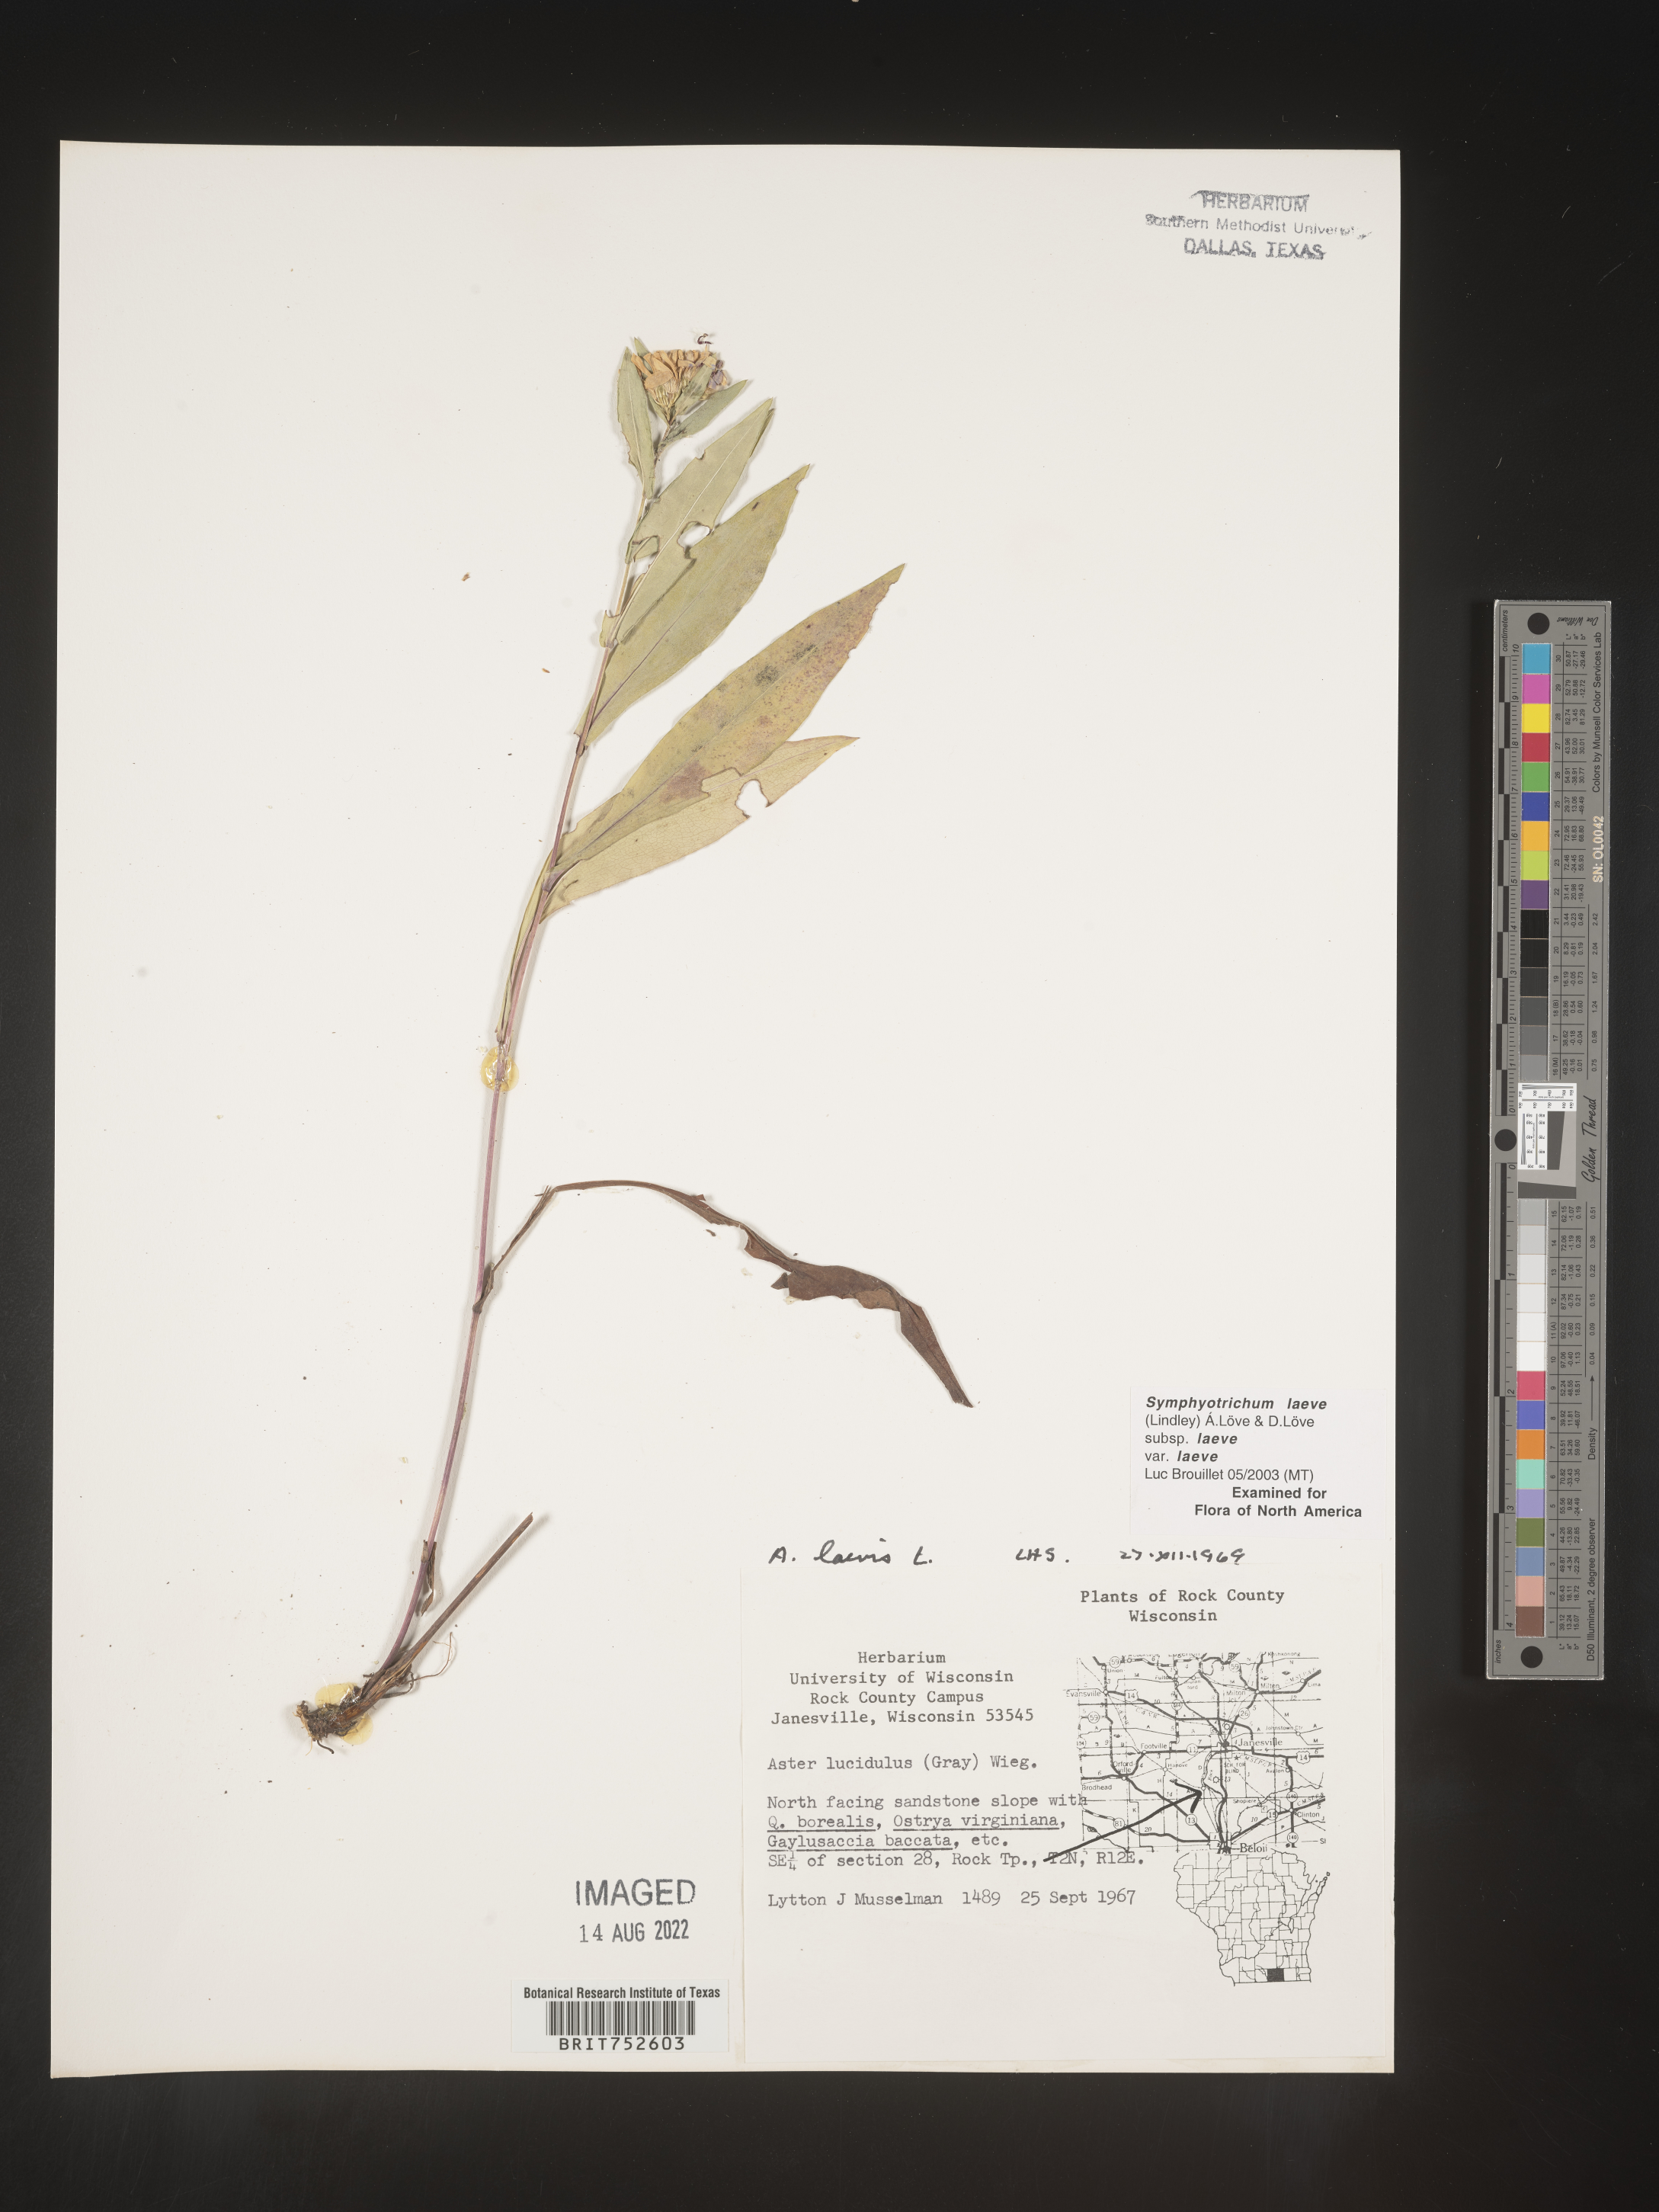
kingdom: Plantae
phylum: Tracheophyta
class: Magnoliopsida
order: Asterales
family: Asteraceae
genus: Symphyotrichum
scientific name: Symphyotrichum laeve
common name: Glaucous aster
